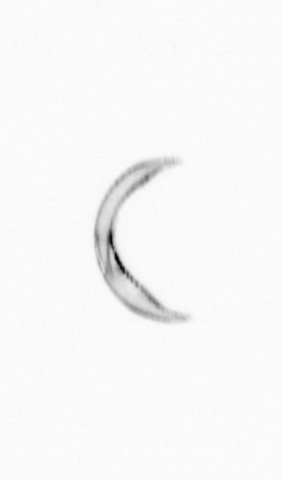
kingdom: Chromista
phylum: Ochrophyta
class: Bacillariophyceae
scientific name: Bacillariophyceae
